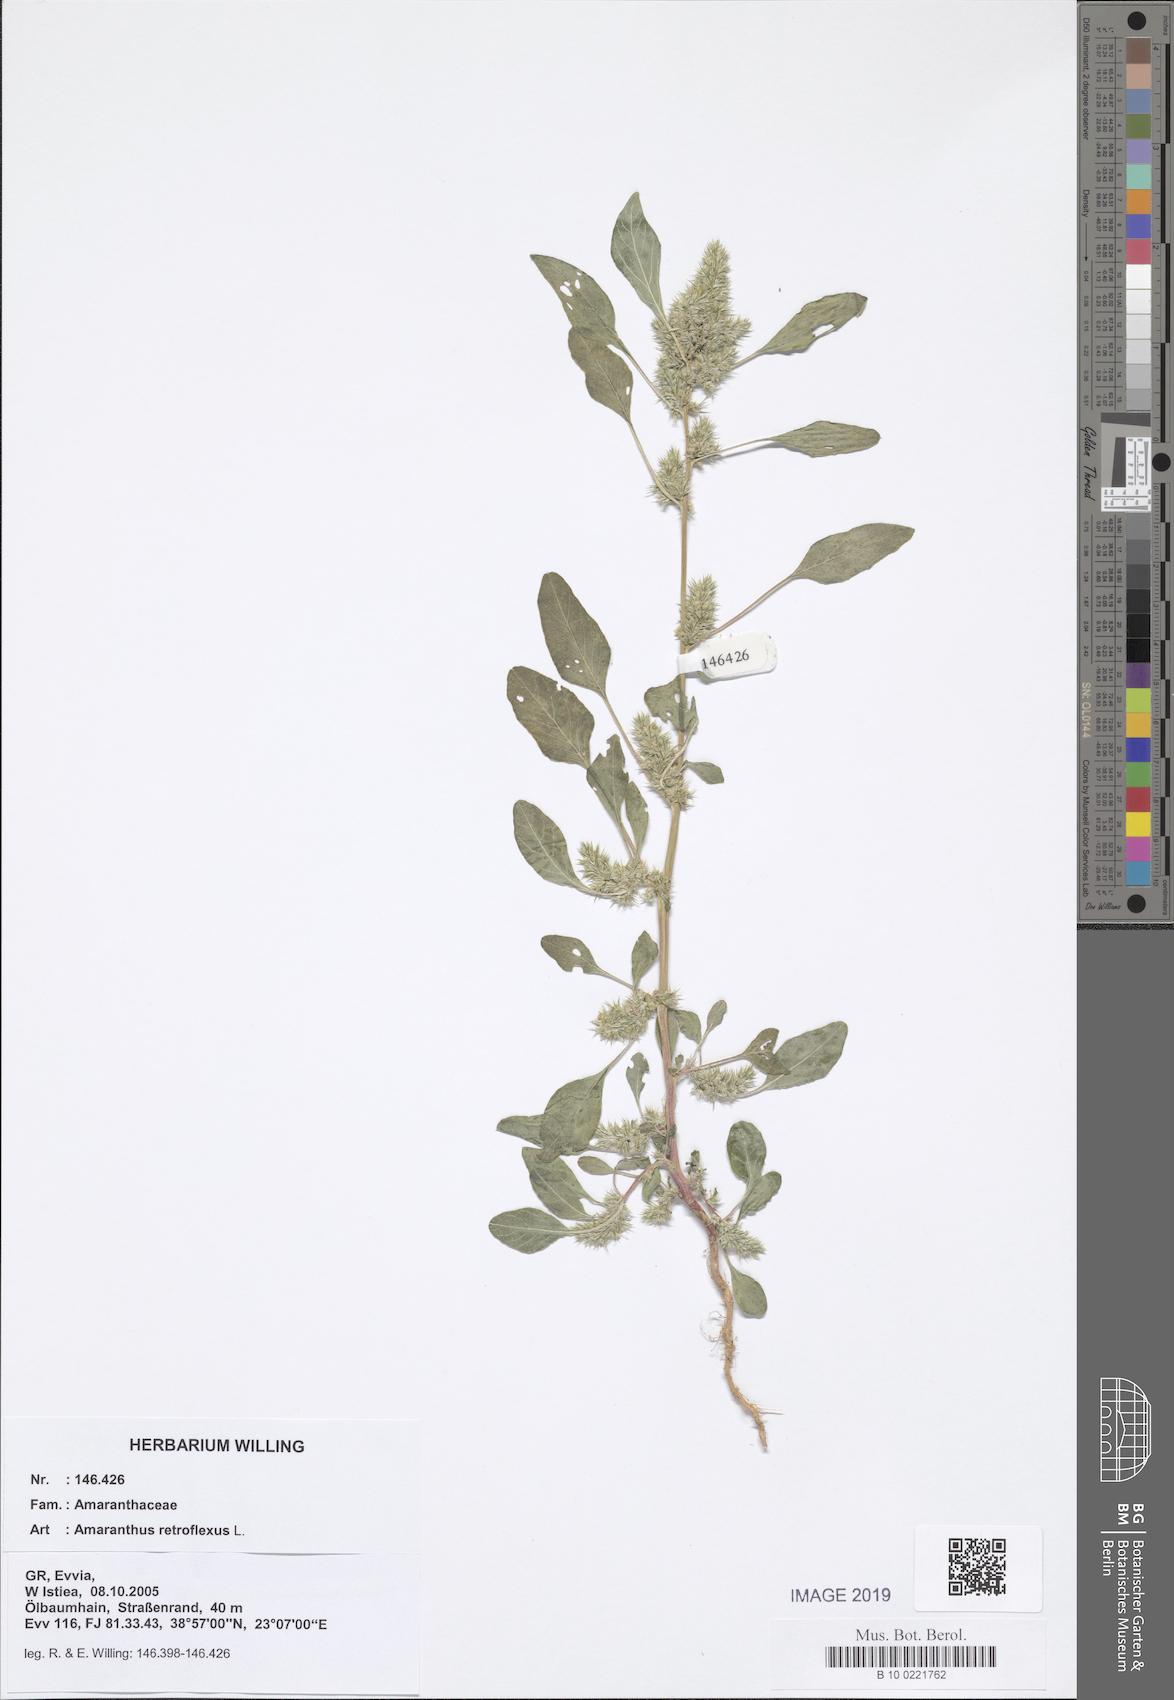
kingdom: Plantae
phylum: Tracheophyta
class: Magnoliopsida
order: Caryophyllales
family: Amaranthaceae
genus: Amaranthus
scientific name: Amaranthus retroflexus
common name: Redroot amaranth
